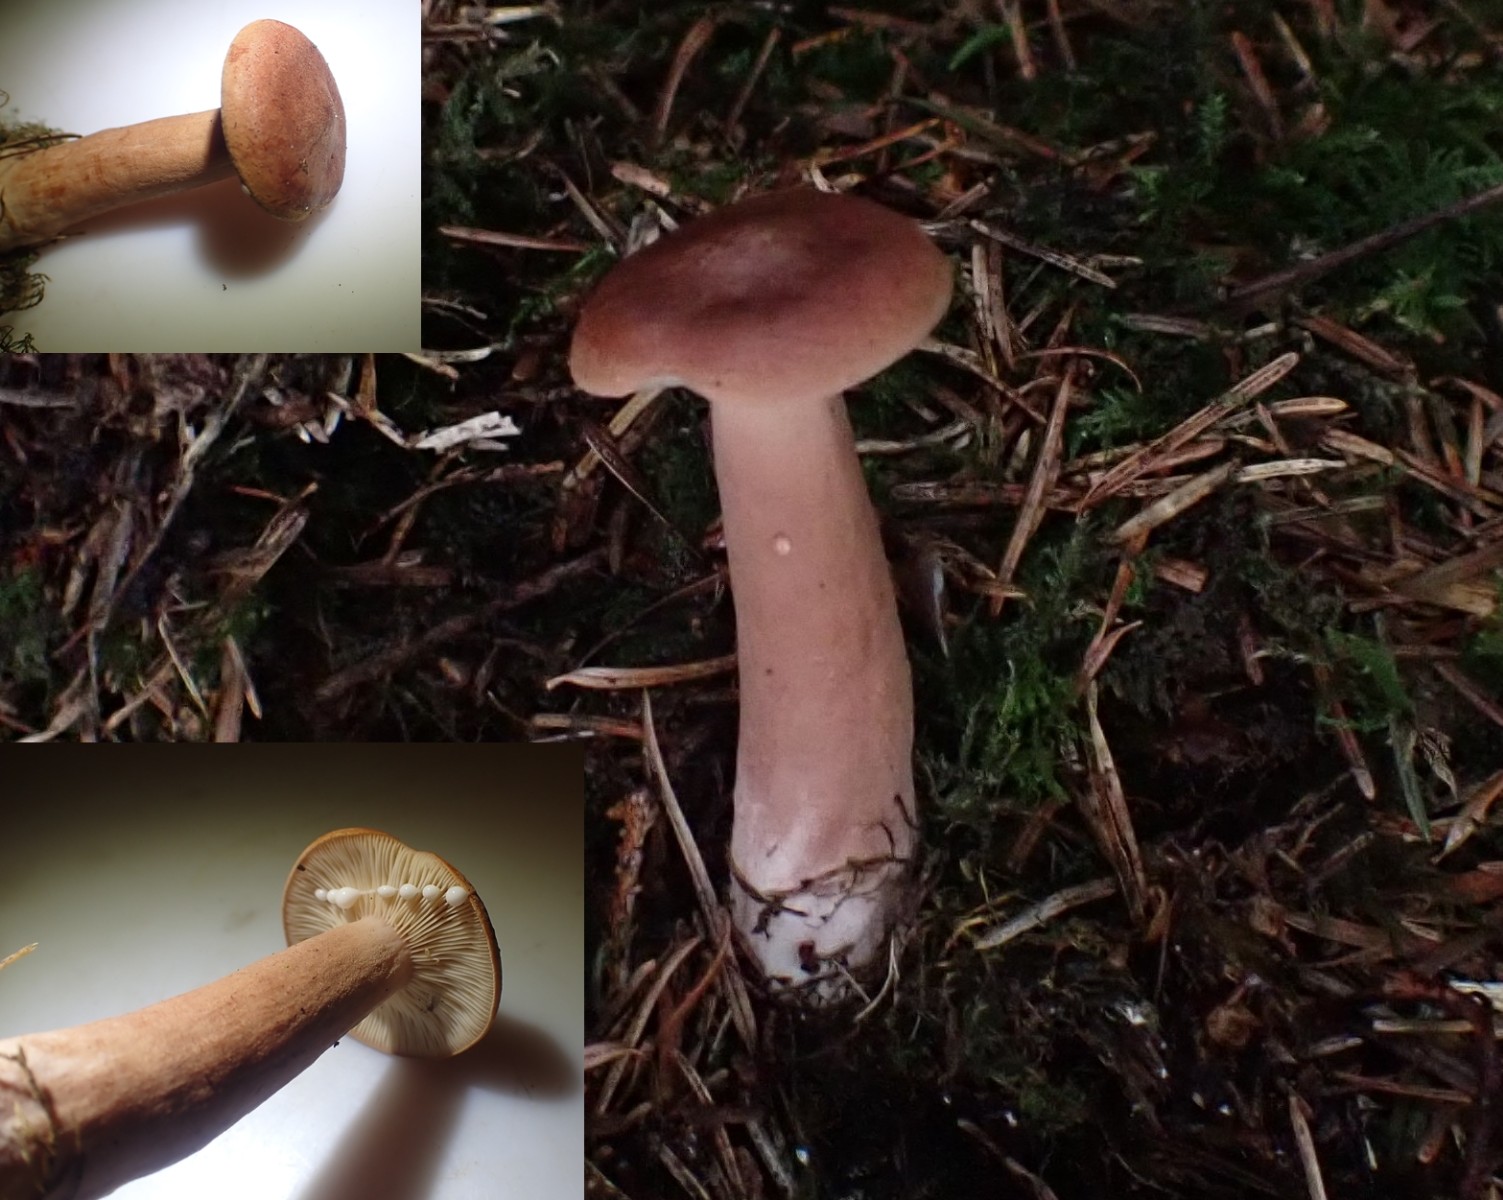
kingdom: Fungi
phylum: Basidiomycota
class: Agaricomycetes
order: Russulales
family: Russulaceae
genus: Lactarius
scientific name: Lactarius rufus
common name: rødbrun mælkehat
